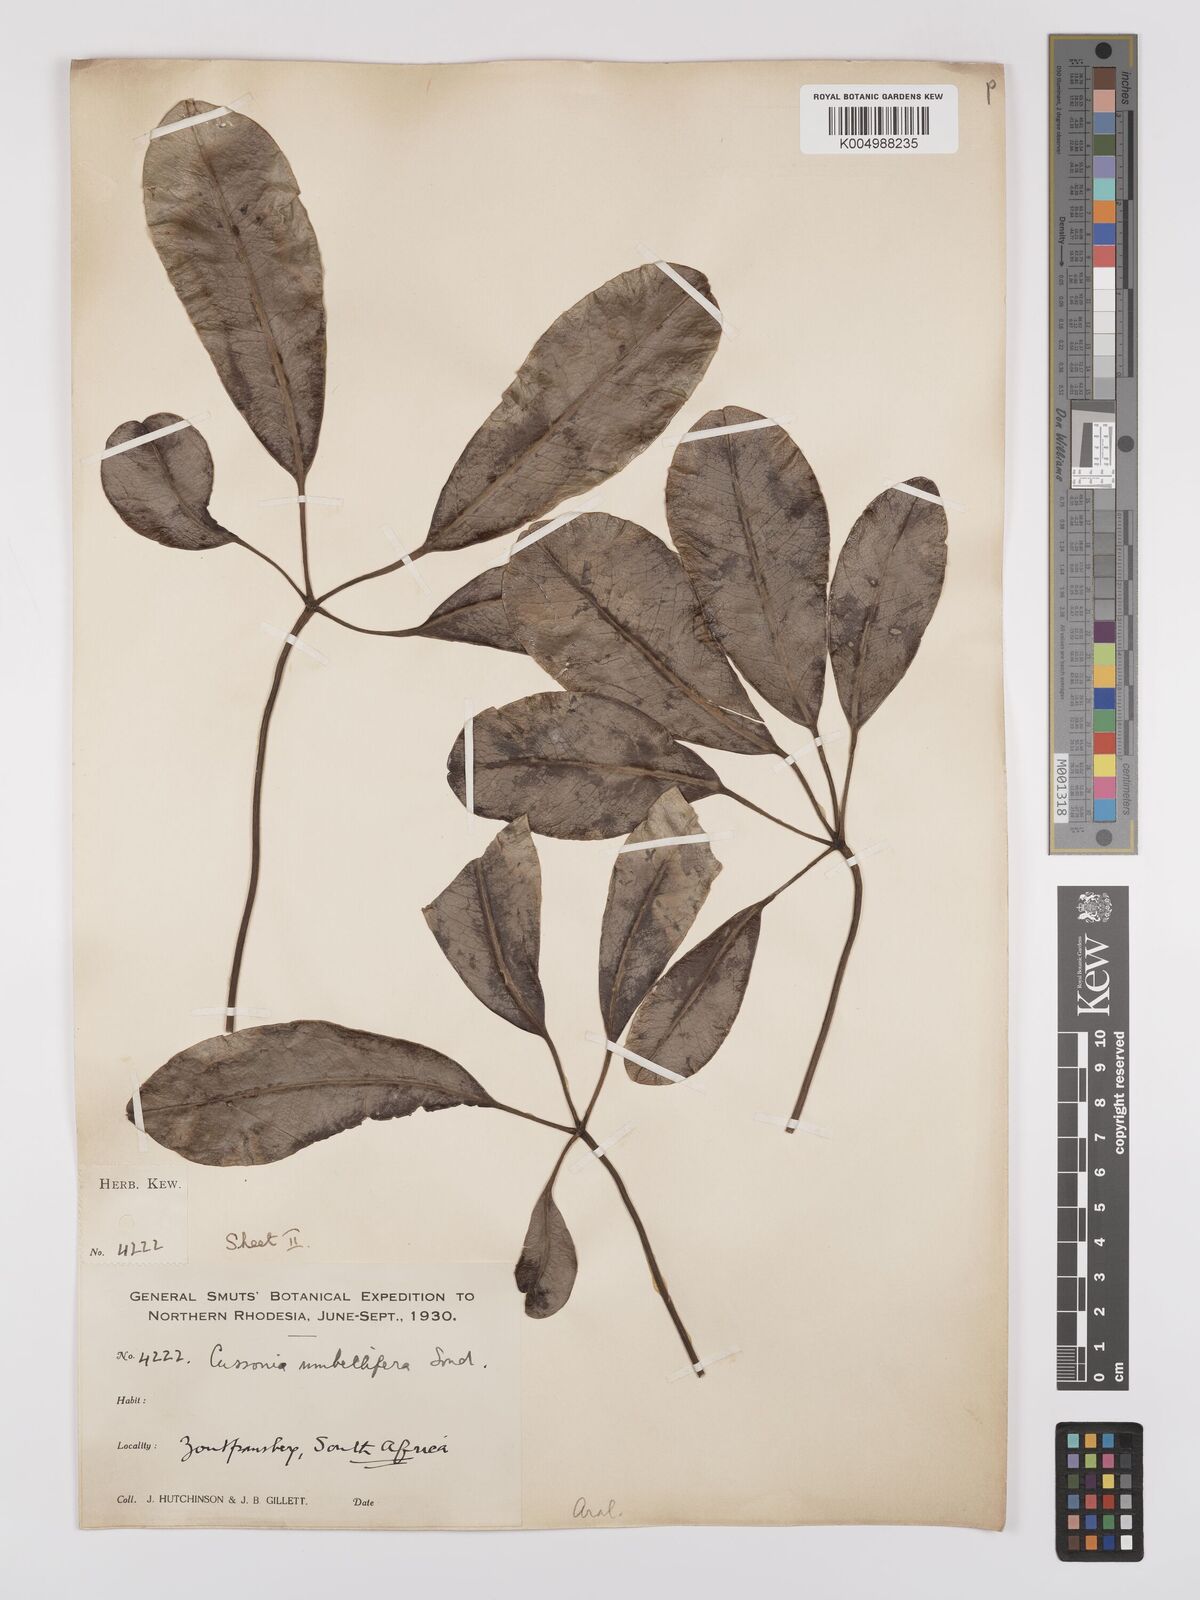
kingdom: Plantae
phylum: Tracheophyta
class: Magnoliopsida
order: Apiales
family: Araliaceae
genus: Neocussonia
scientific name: Neocussonia umbellifera
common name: False cabbage tree
